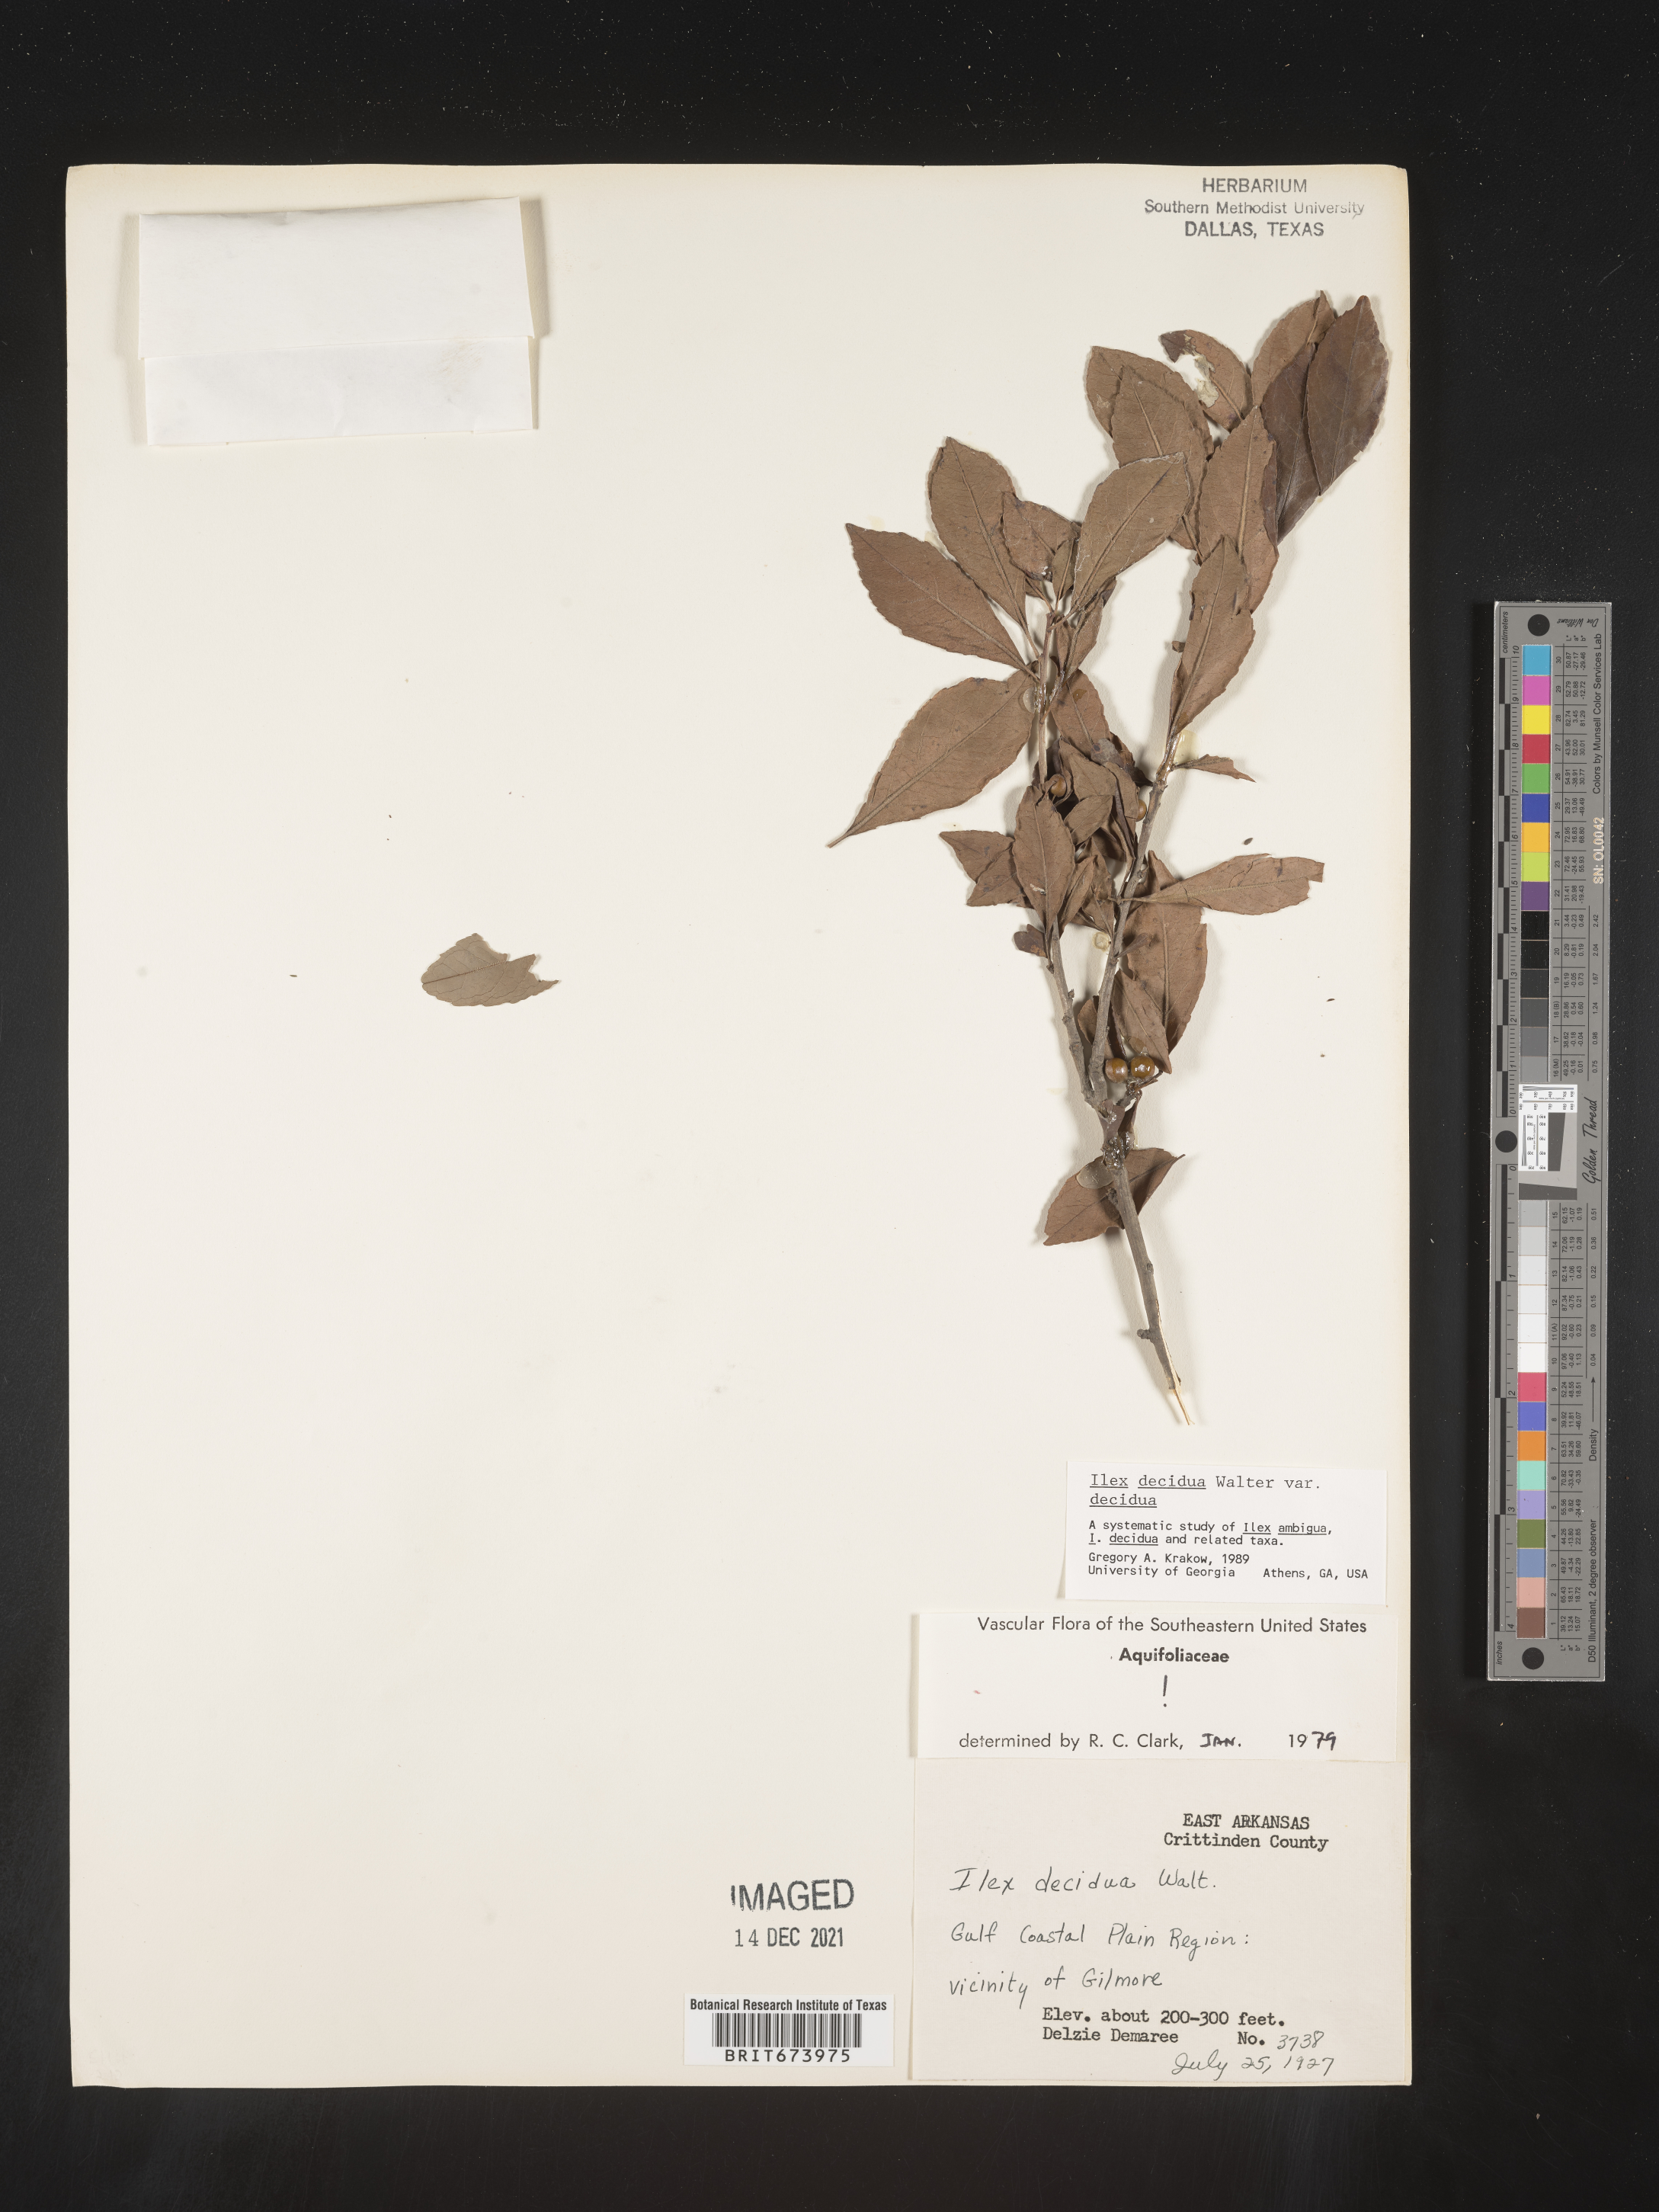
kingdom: Plantae
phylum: Tracheophyta
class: Magnoliopsida
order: Aquifoliales
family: Aquifoliaceae
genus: Ilex
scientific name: Ilex decidua
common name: Possum-haw
